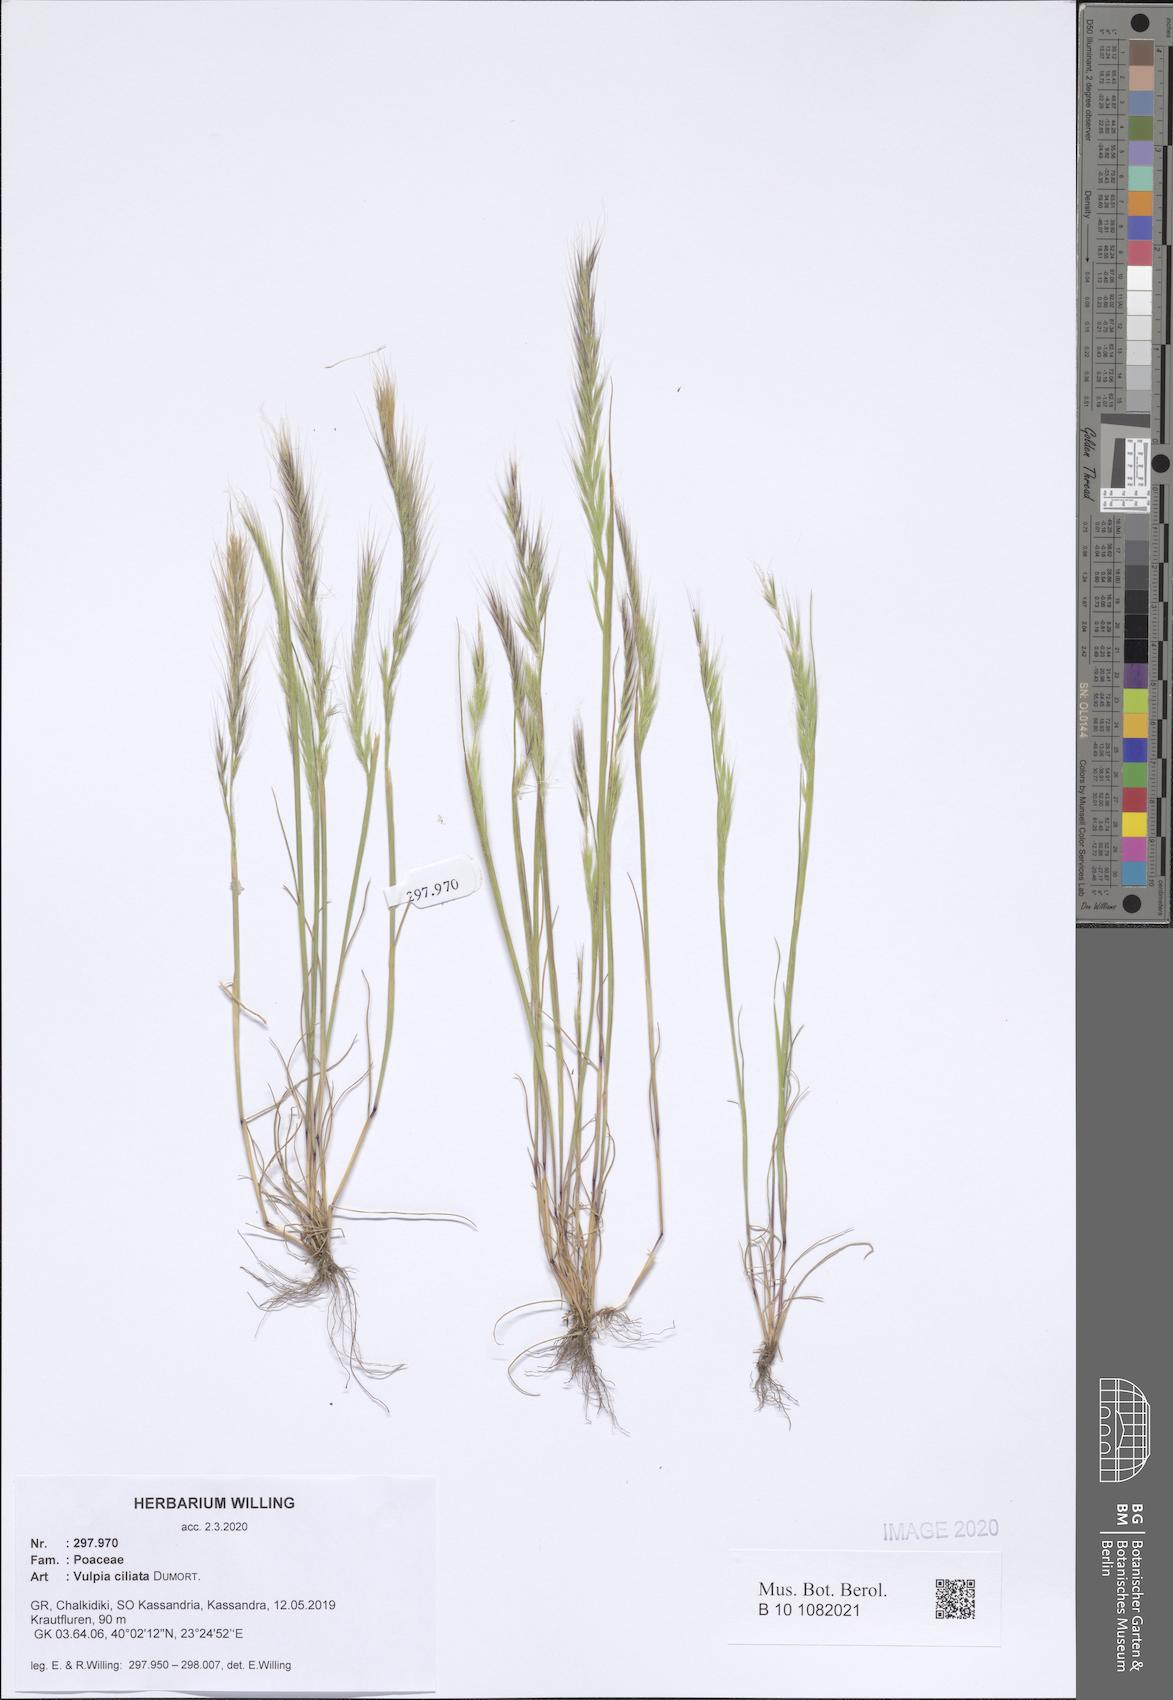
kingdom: Plantae
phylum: Tracheophyta
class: Liliopsida
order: Poales
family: Poaceae
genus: Festuca
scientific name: Festuca ambigua
